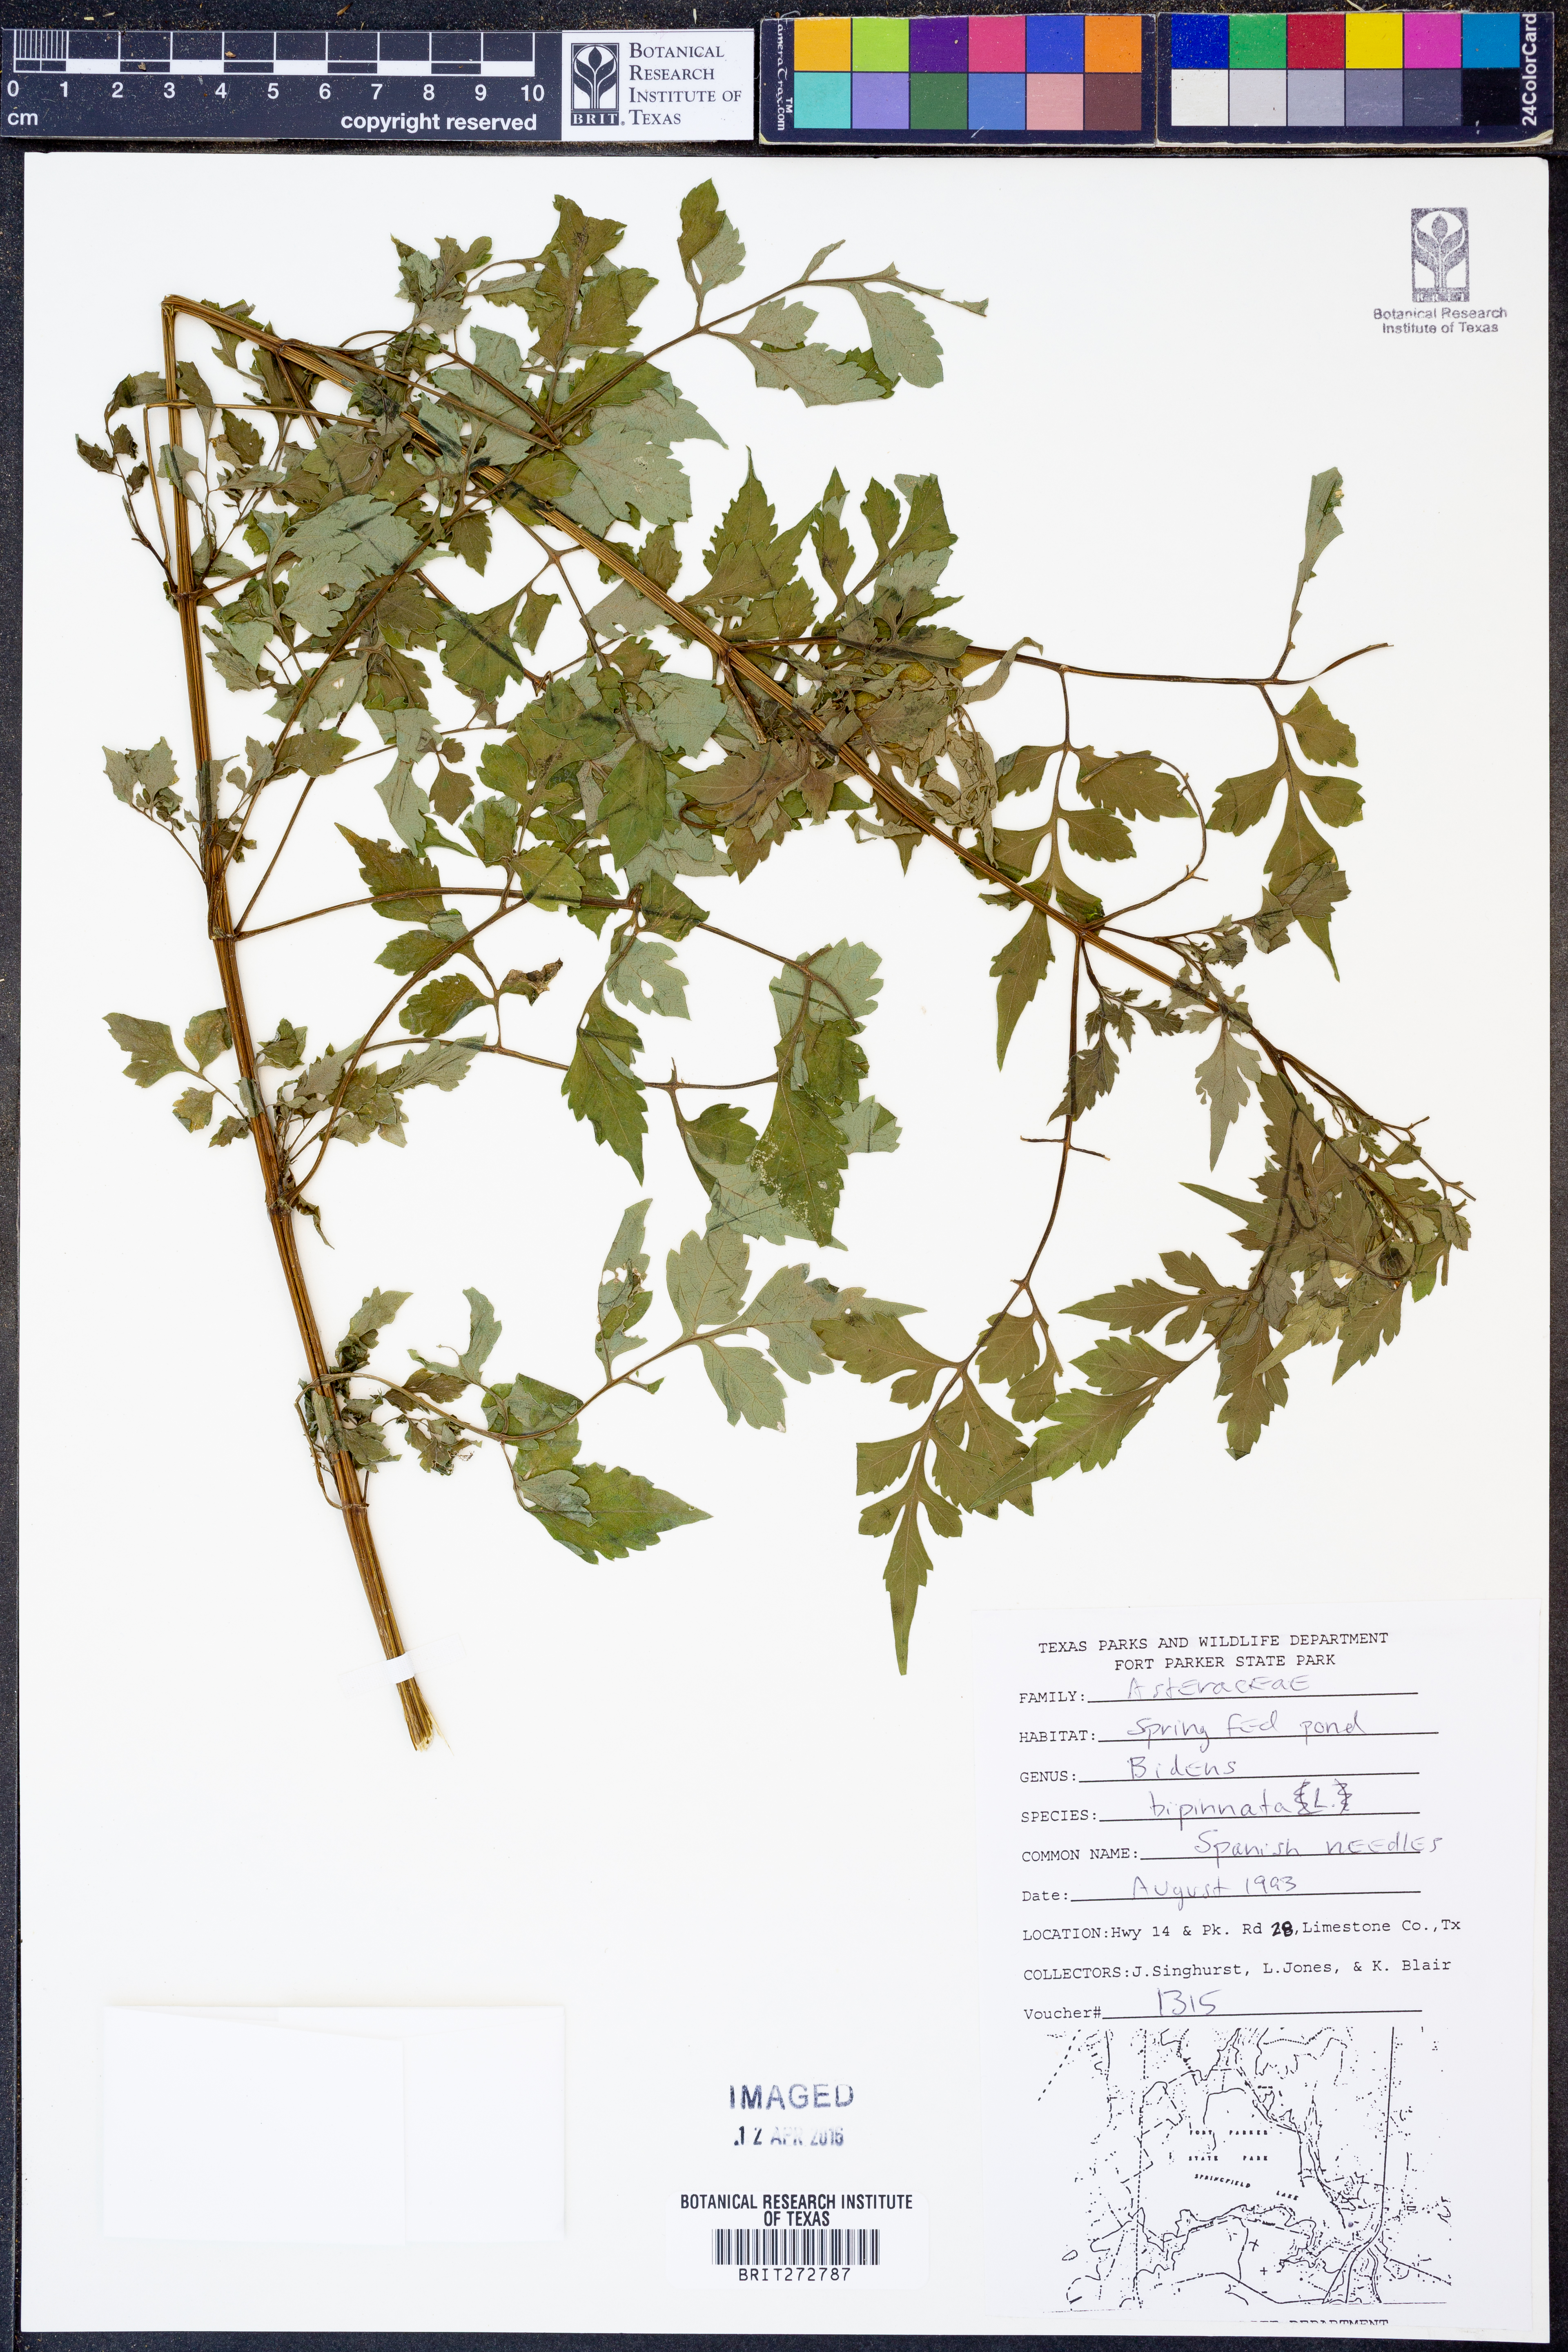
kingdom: Plantae
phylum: Tracheophyta
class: Magnoliopsida
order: Asterales
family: Asteraceae
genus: Bidens
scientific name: Bidens bipinnata
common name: Spanish-needles
